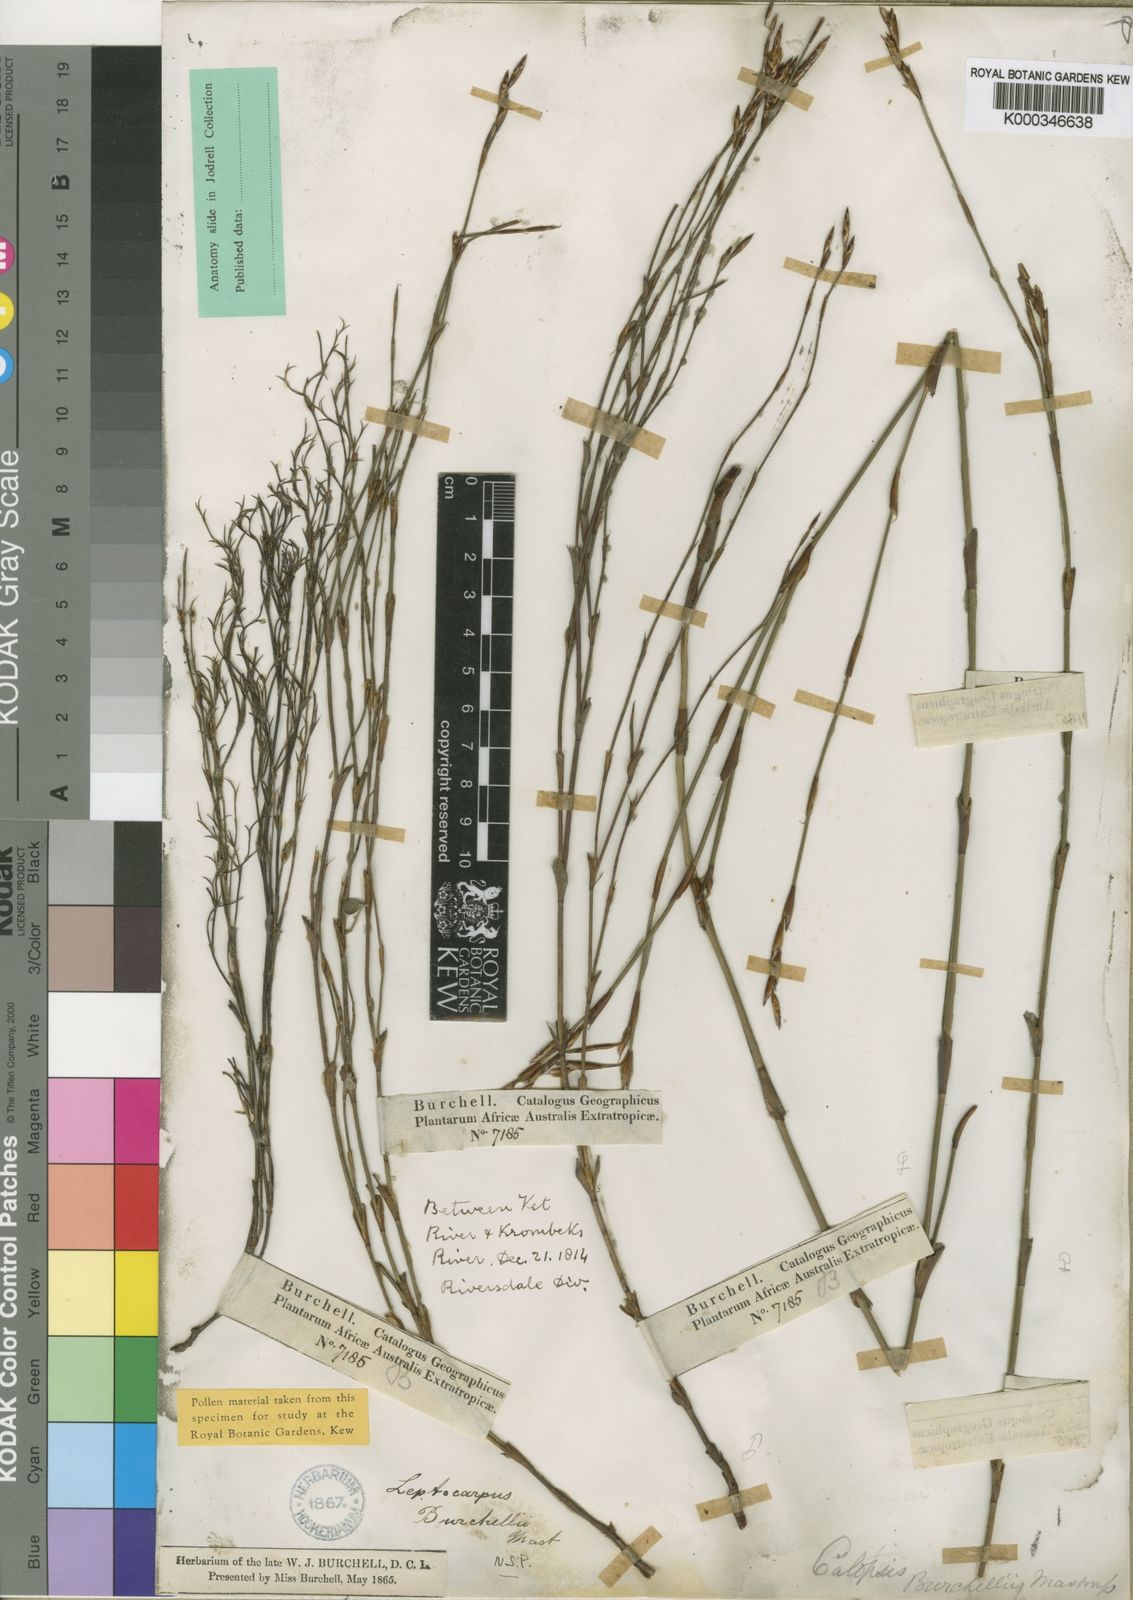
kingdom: Plantae
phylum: Tracheophyta
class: Liliopsida
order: Poales
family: Restionaceae
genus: Restio
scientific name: Restio albotuberculatus
